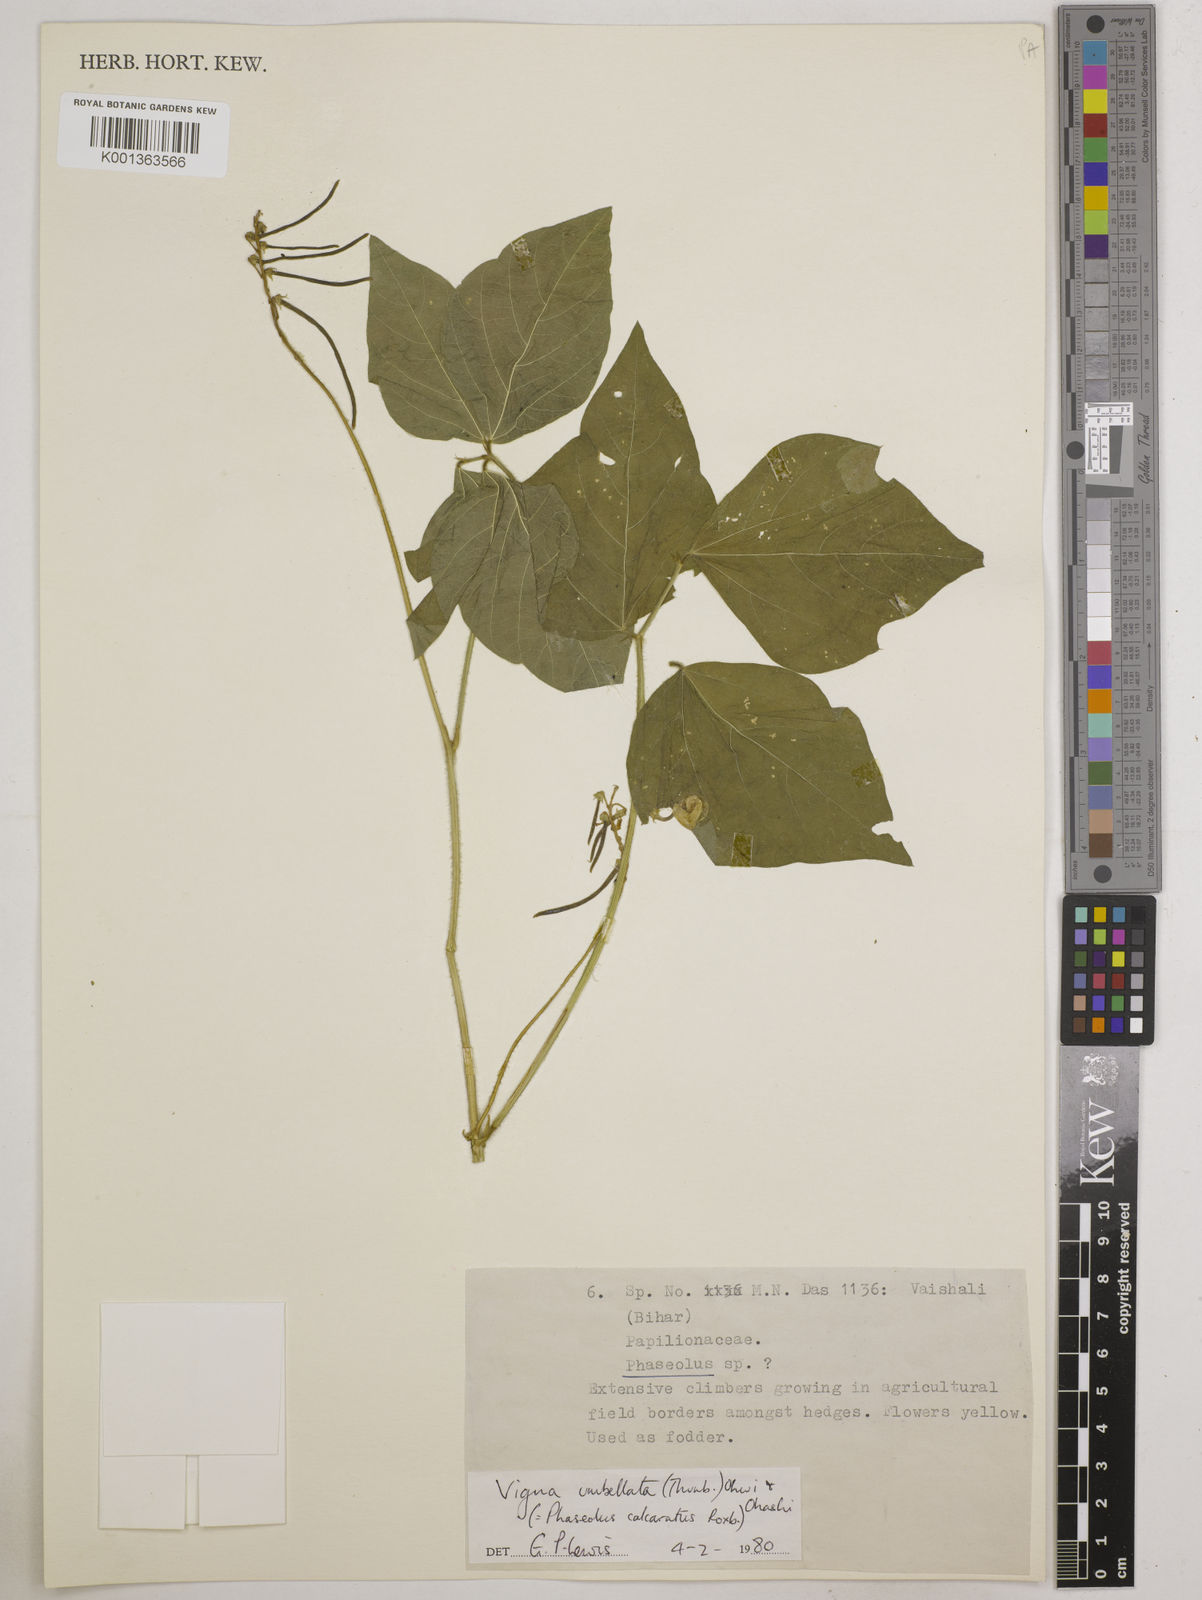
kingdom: Plantae
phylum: Tracheophyta
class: Magnoliopsida
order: Fabales
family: Fabaceae
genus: Vigna
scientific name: Vigna umbellata
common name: Oriental-bean
